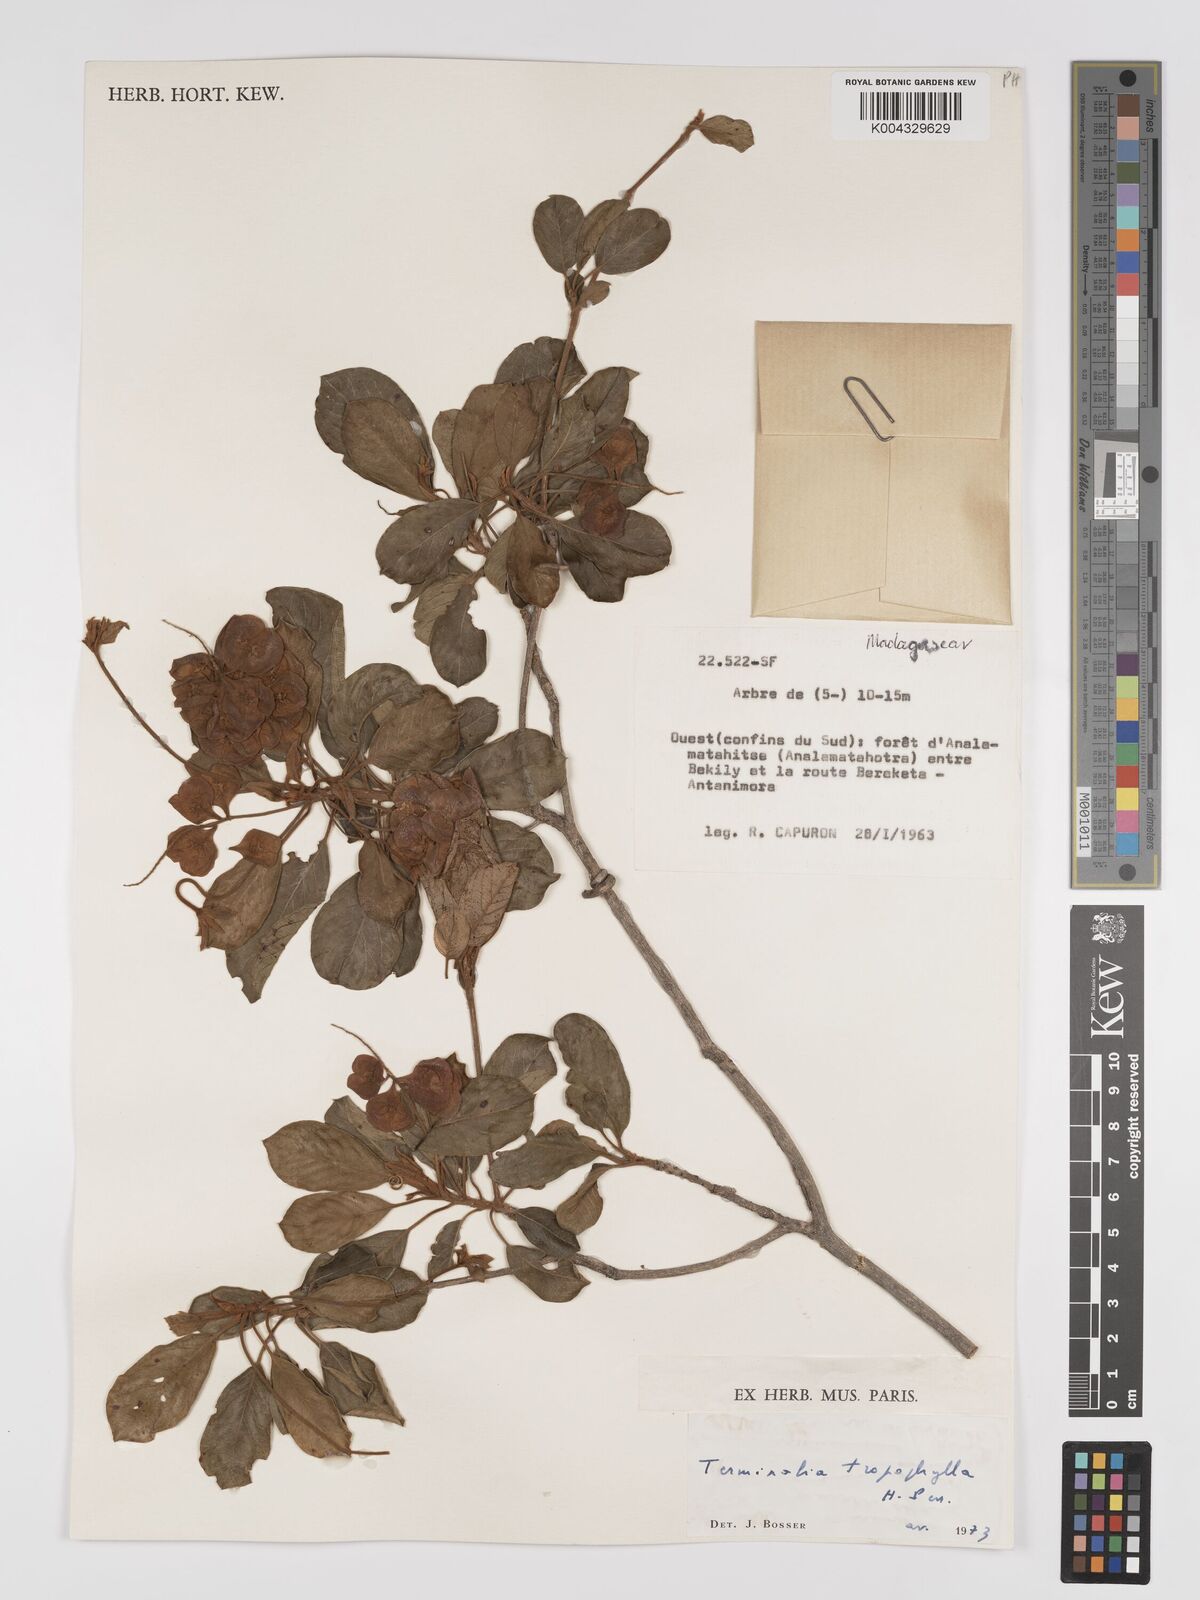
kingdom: Plantae
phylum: Tracheophyta
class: Magnoliopsida
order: Myrtales
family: Combretaceae
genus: Terminalia
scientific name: Terminalia tropophylla
